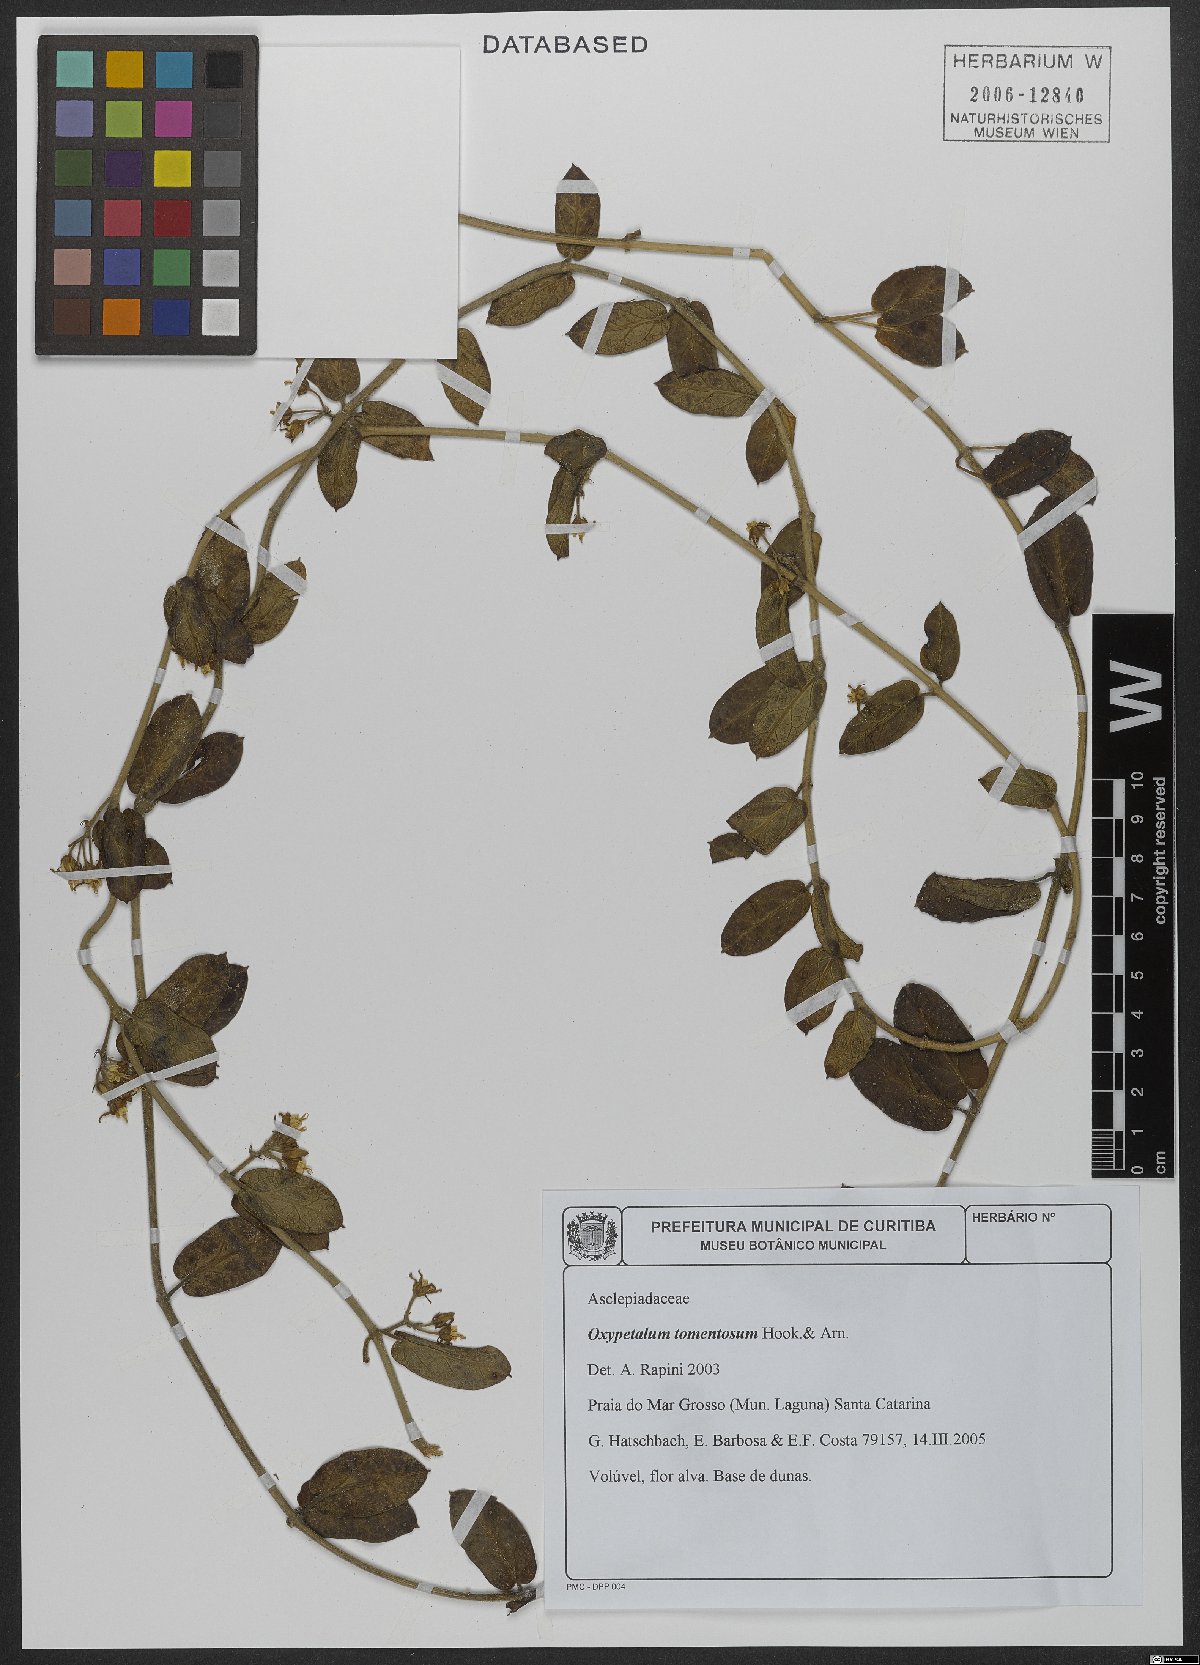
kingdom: Plantae
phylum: Tracheophyta
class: Magnoliopsida
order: Gentianales
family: Apocynaceae
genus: Oxypetalum
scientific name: Oxypetalum tomentosum
